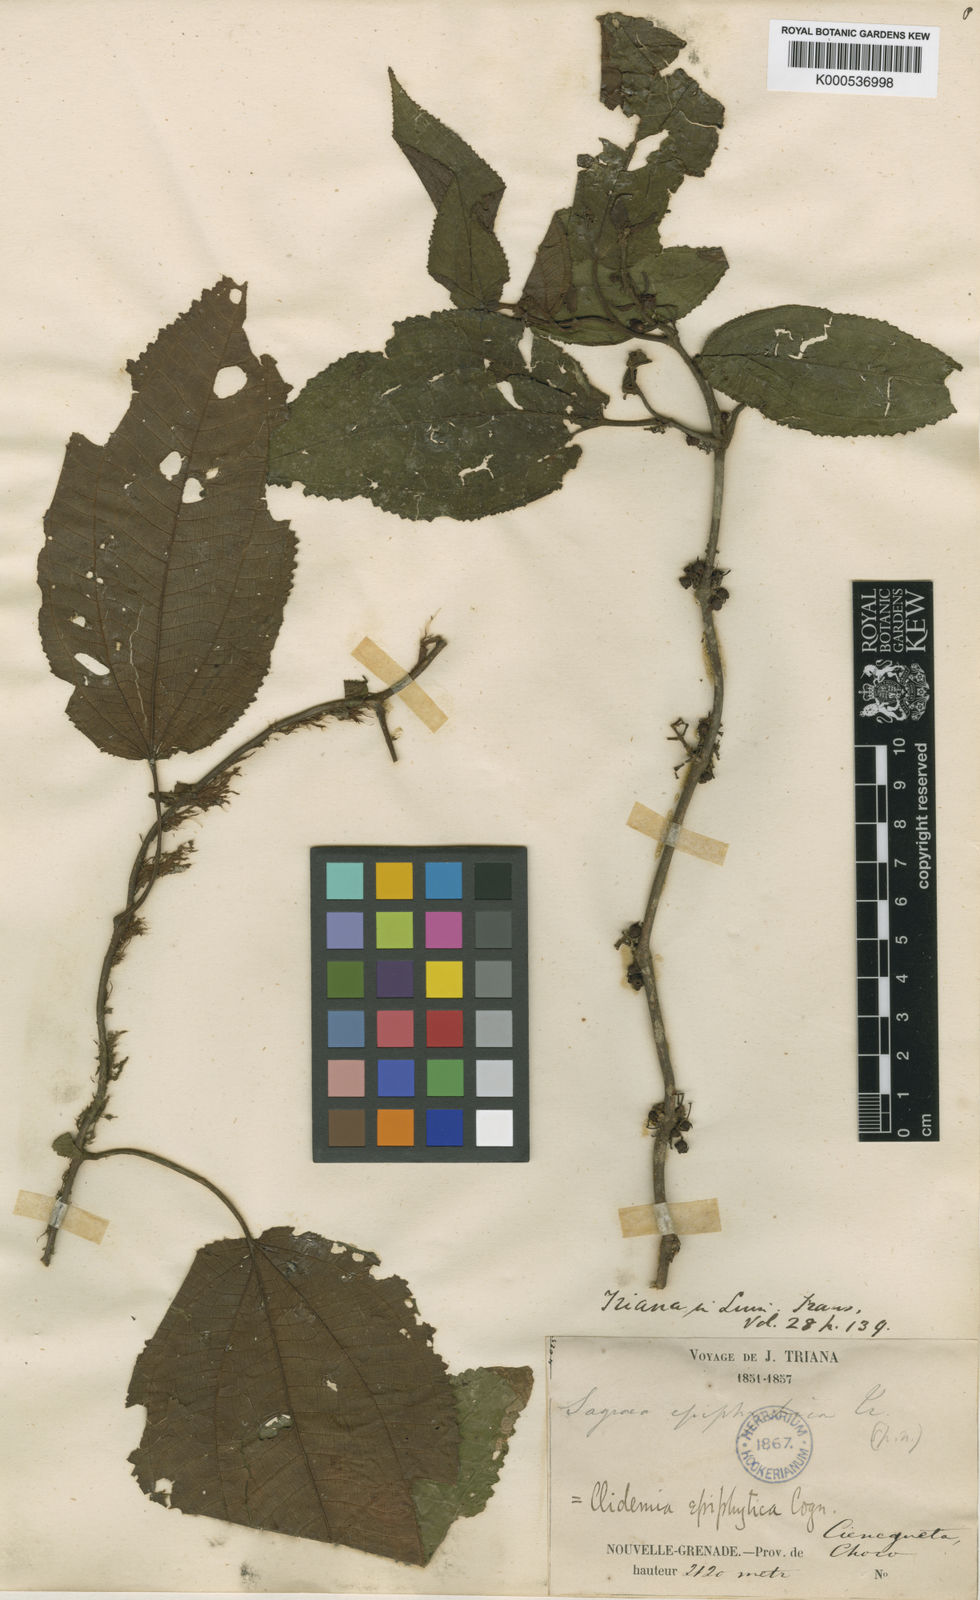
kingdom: Plantae
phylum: Tracheophyta
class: Magnoliopsida
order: Myrtales
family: Melastomataceae
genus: Miconia
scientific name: Miconia neoepiphytica
